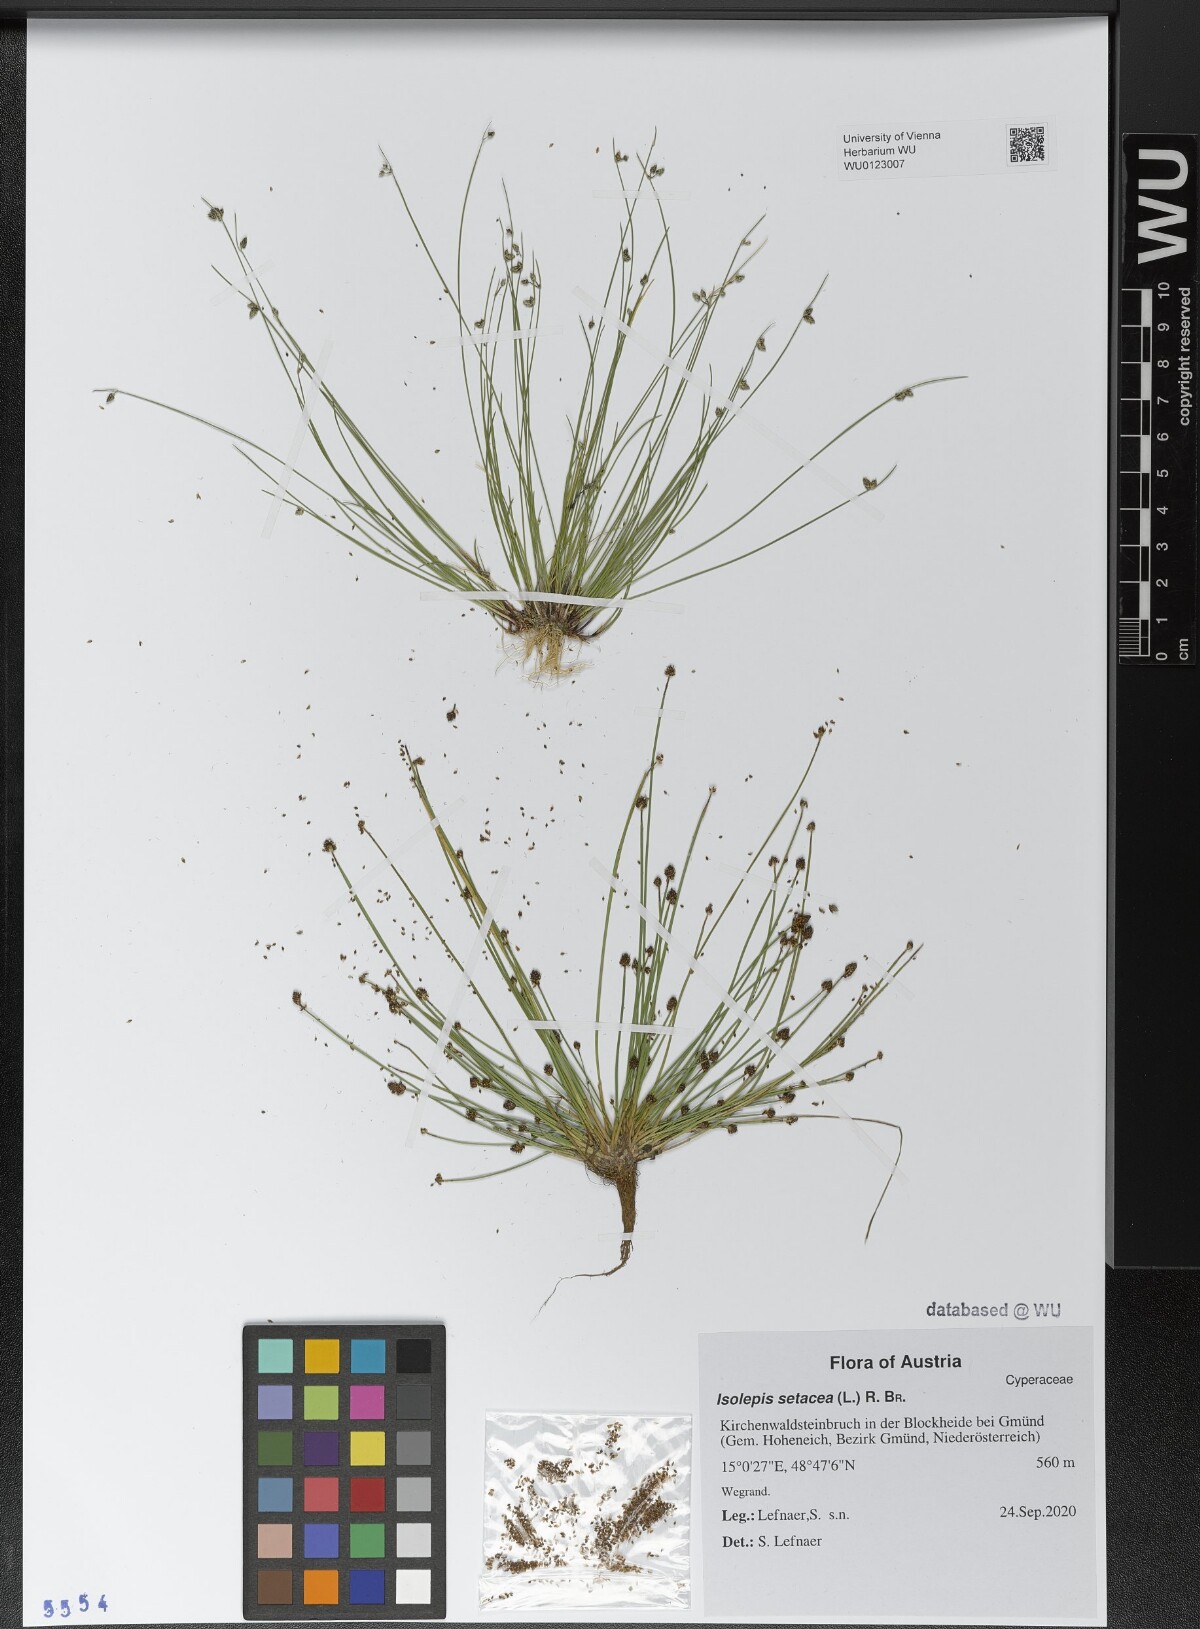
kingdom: Plantae
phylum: Tracheophyta
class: Liliopsida
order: Poales
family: Cyperaceae
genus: Isolepis
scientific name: Isolepis setacea
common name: Bristle club-rush
